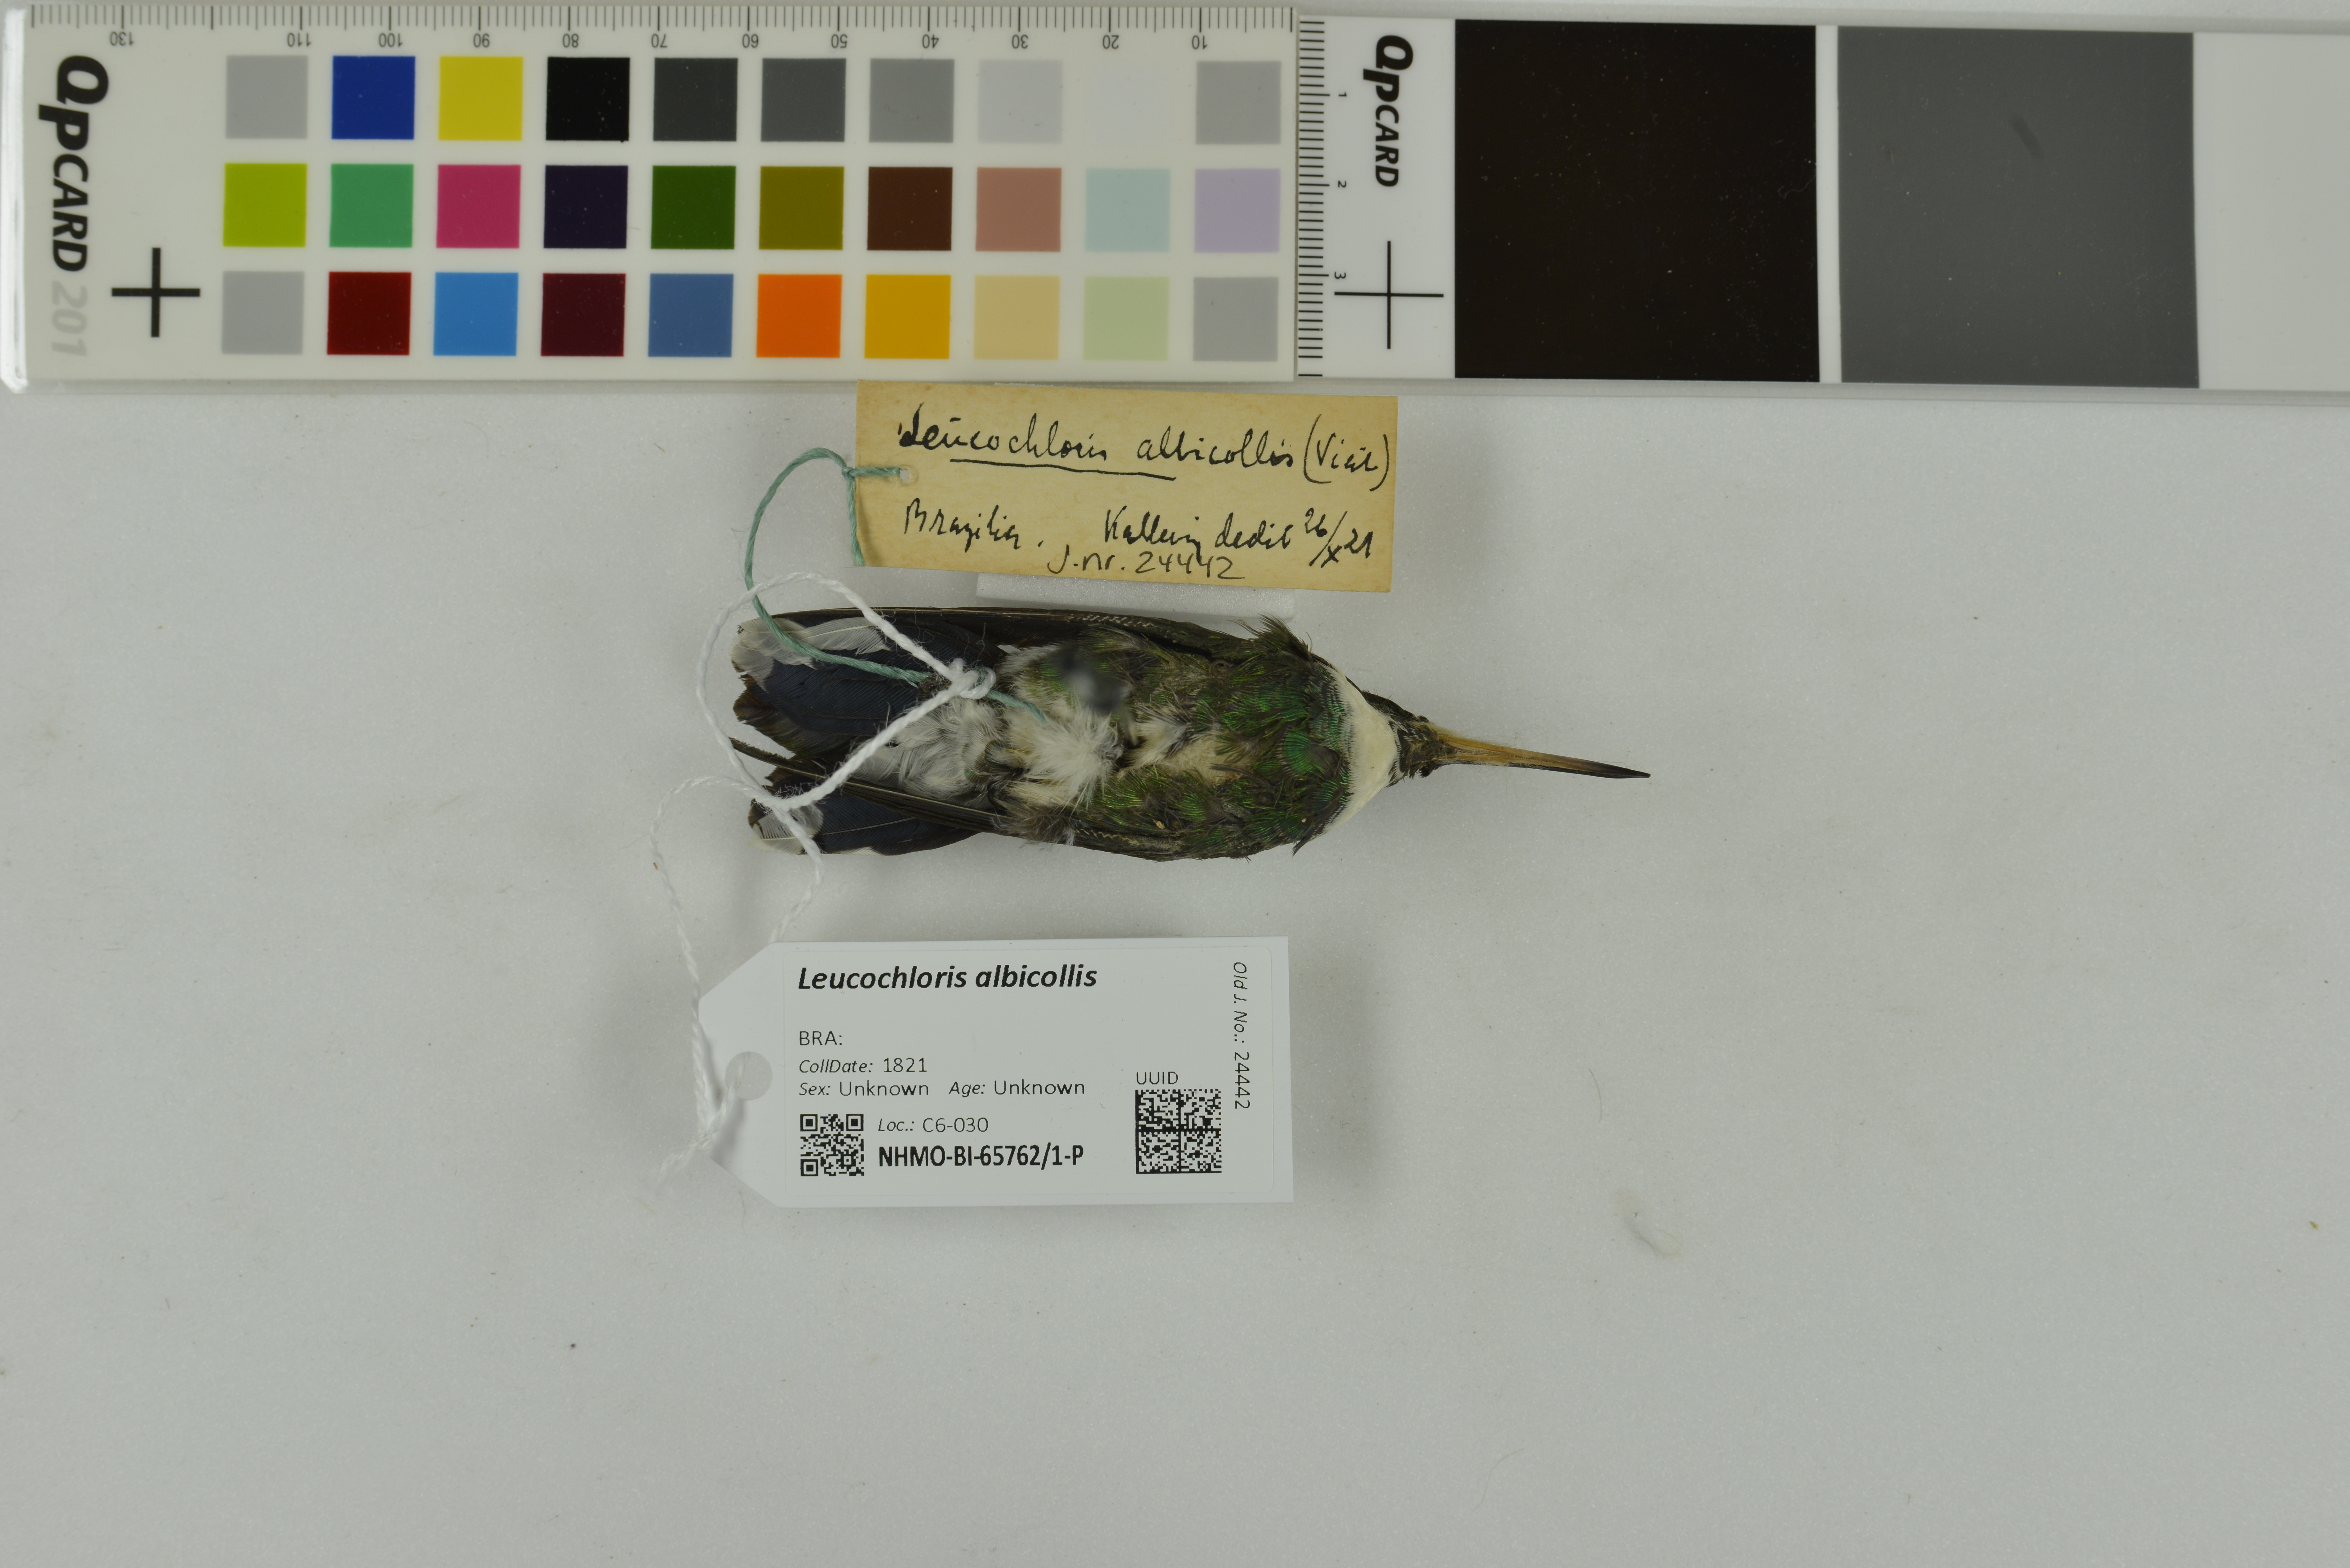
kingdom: Animalia
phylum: Chordata
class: Aves
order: Apodiformes
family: Trochilidae
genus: Leucochloris
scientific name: Leucochloris albicollis
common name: White-throated hummingbird
